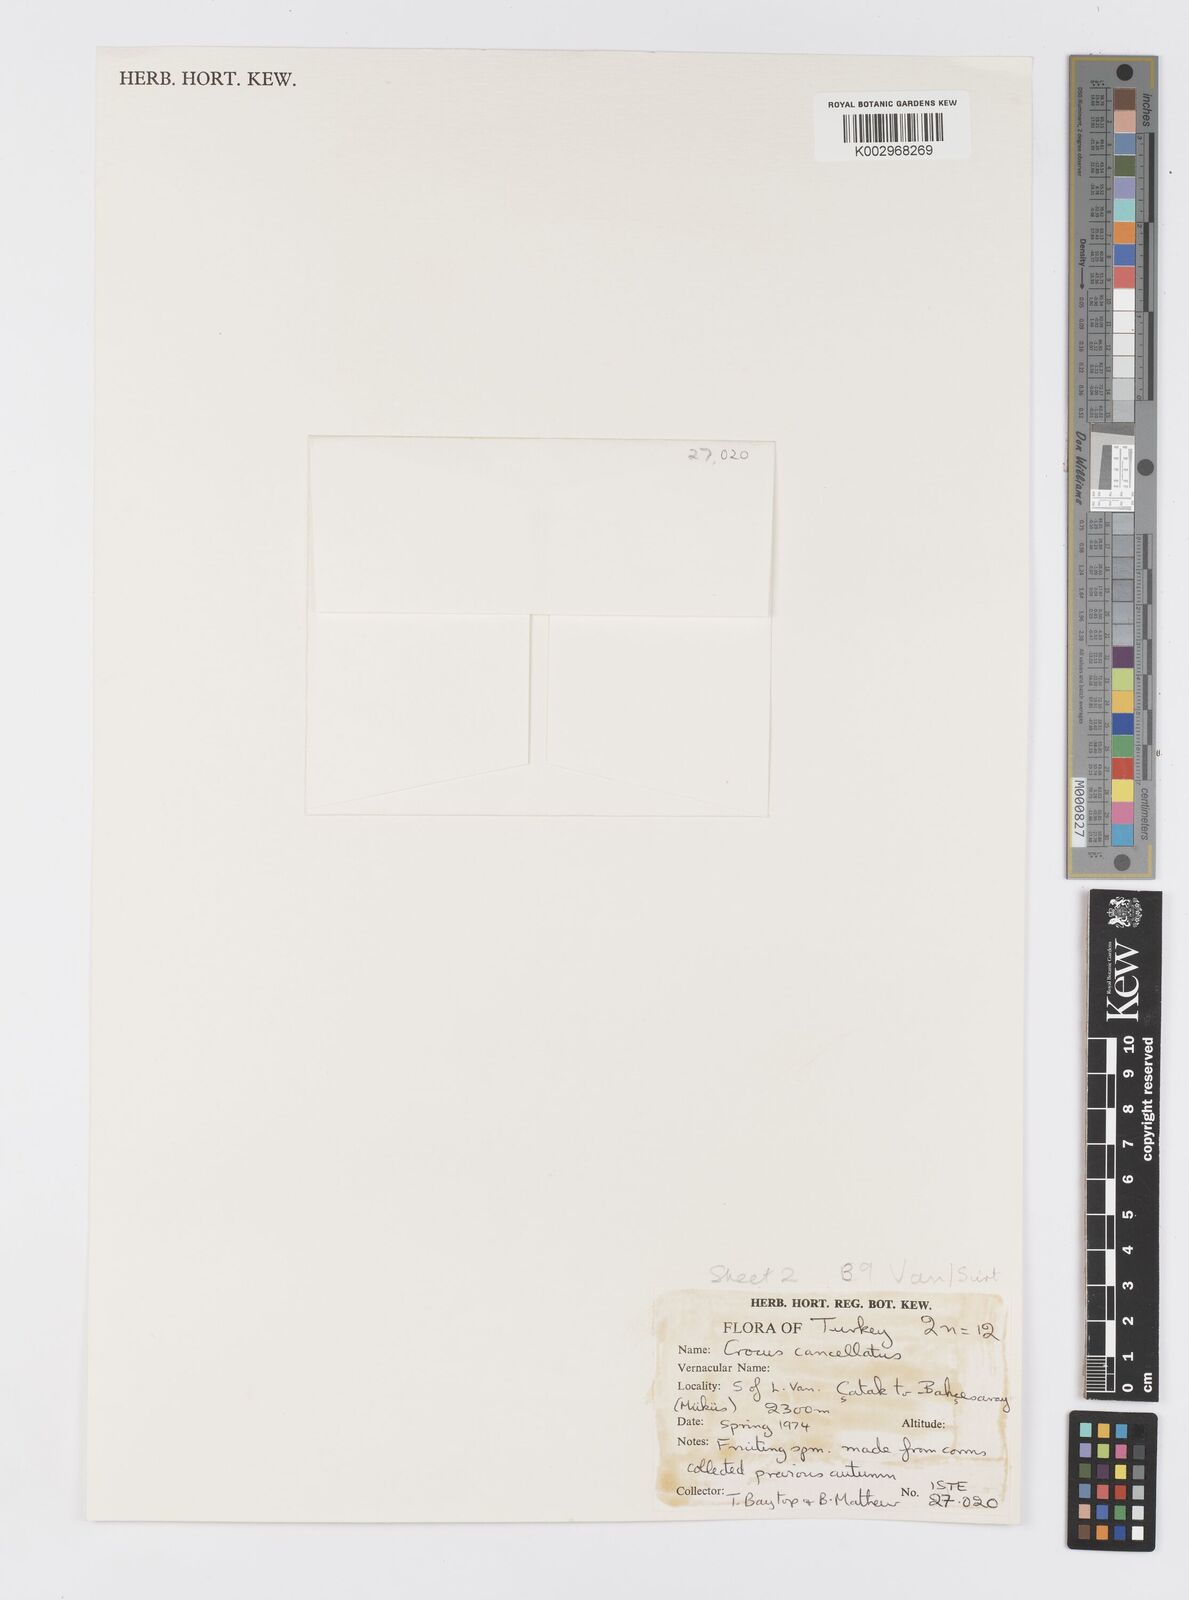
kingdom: Plantae
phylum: Tracheophyta
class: Liliopsida
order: Asparagales
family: Iridaceae
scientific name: Iridaceae
